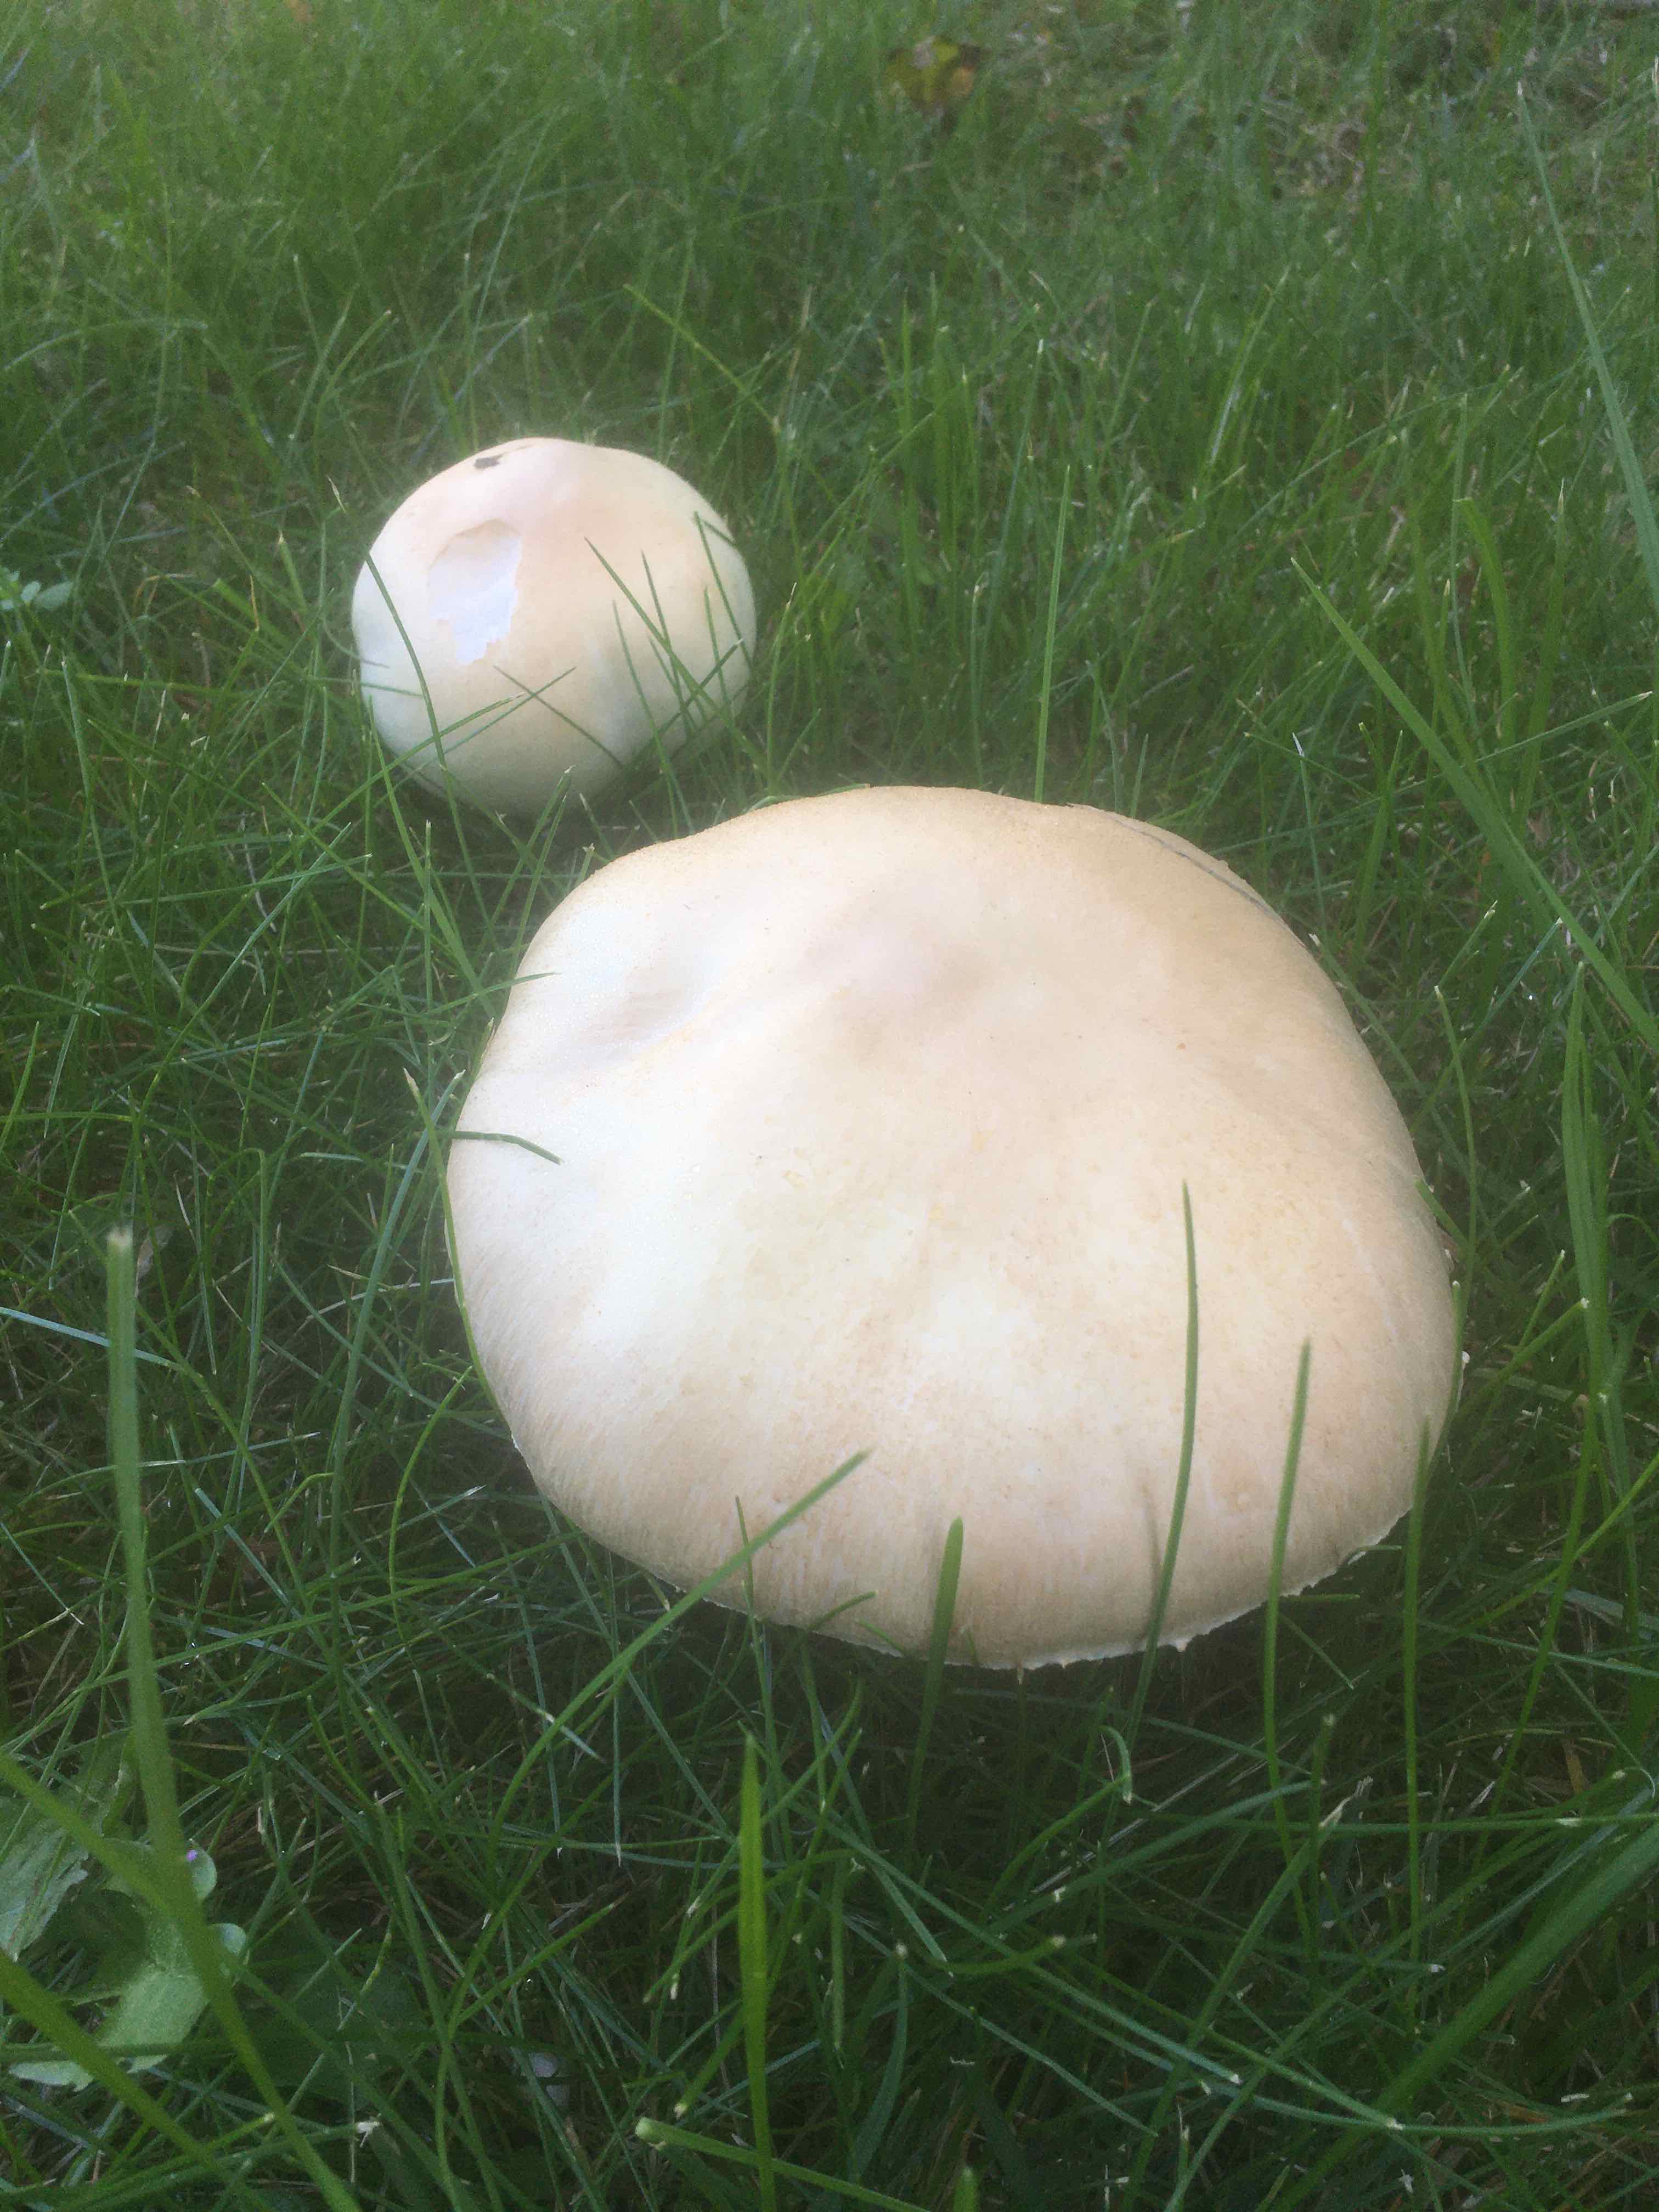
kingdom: Fungi
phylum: Basidiomycota
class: Agaricomycetes
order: Agaricales
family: Agaricaceae
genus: Agaricus
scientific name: Agaricus arvensis
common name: ager-champignon
